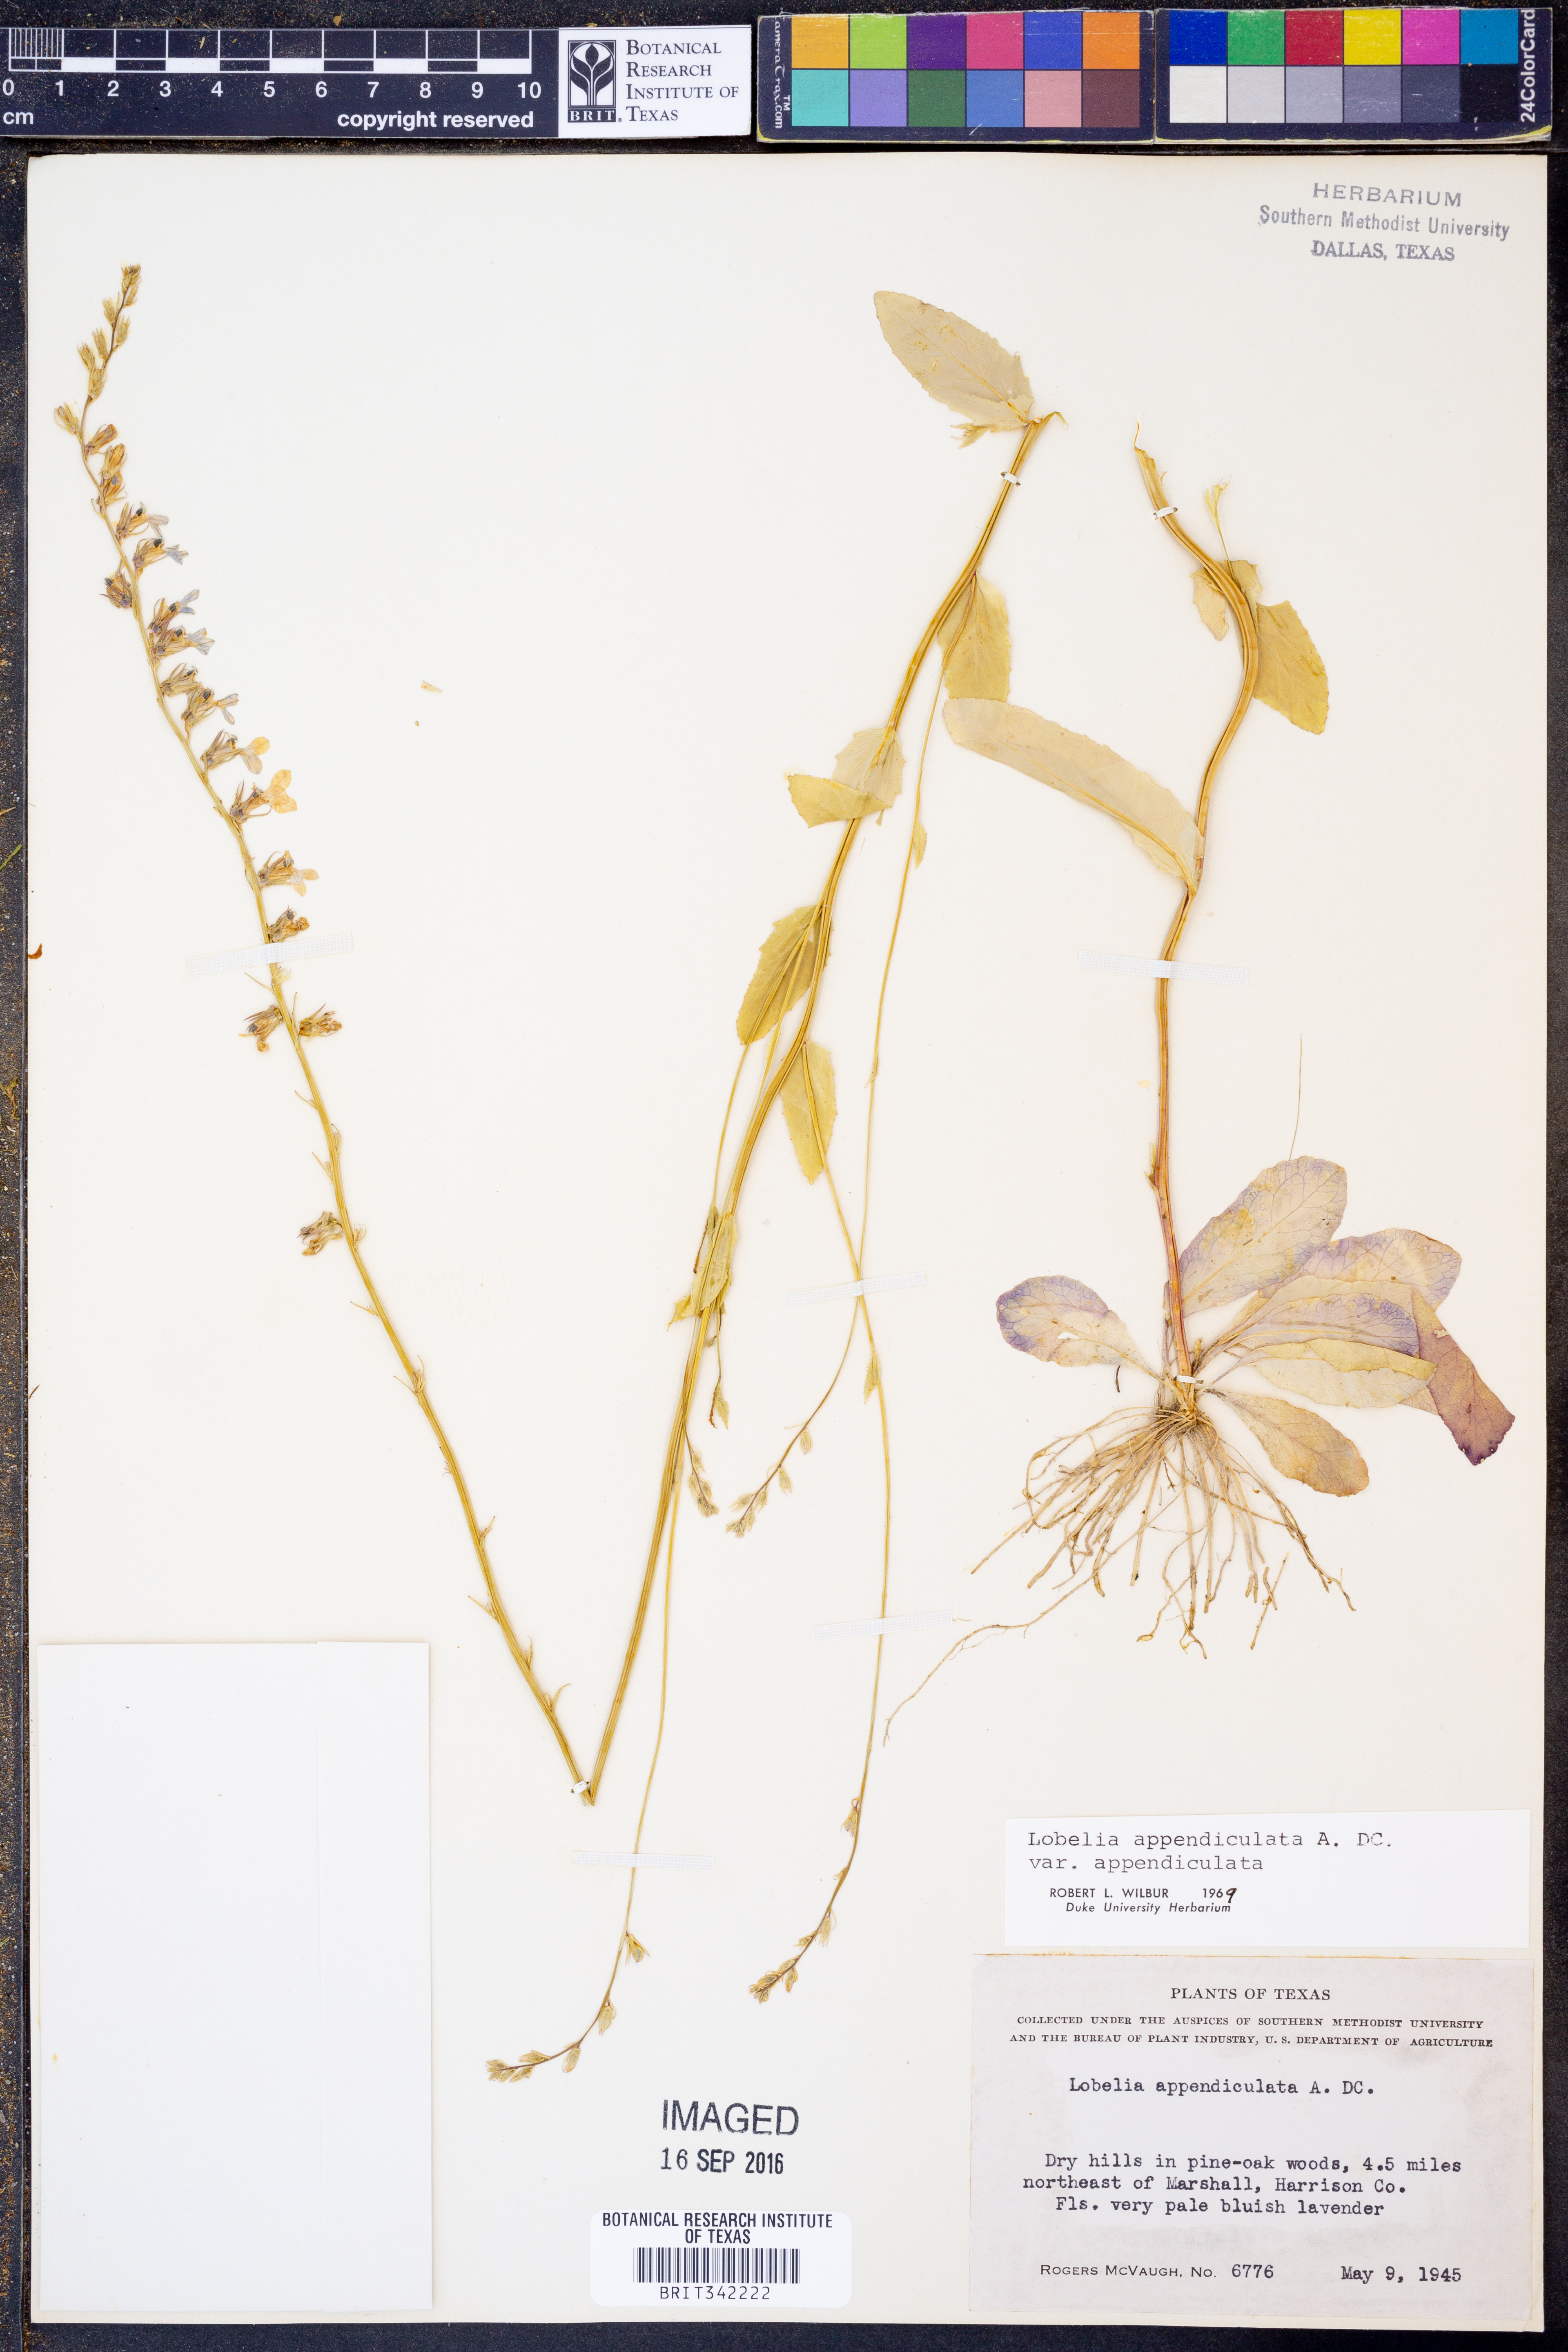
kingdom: Plantae
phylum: Tracheophyta
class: Magnoliopsida
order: Asterales
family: Campanulaceae
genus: Lobelia
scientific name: Lobelia appendiculata
